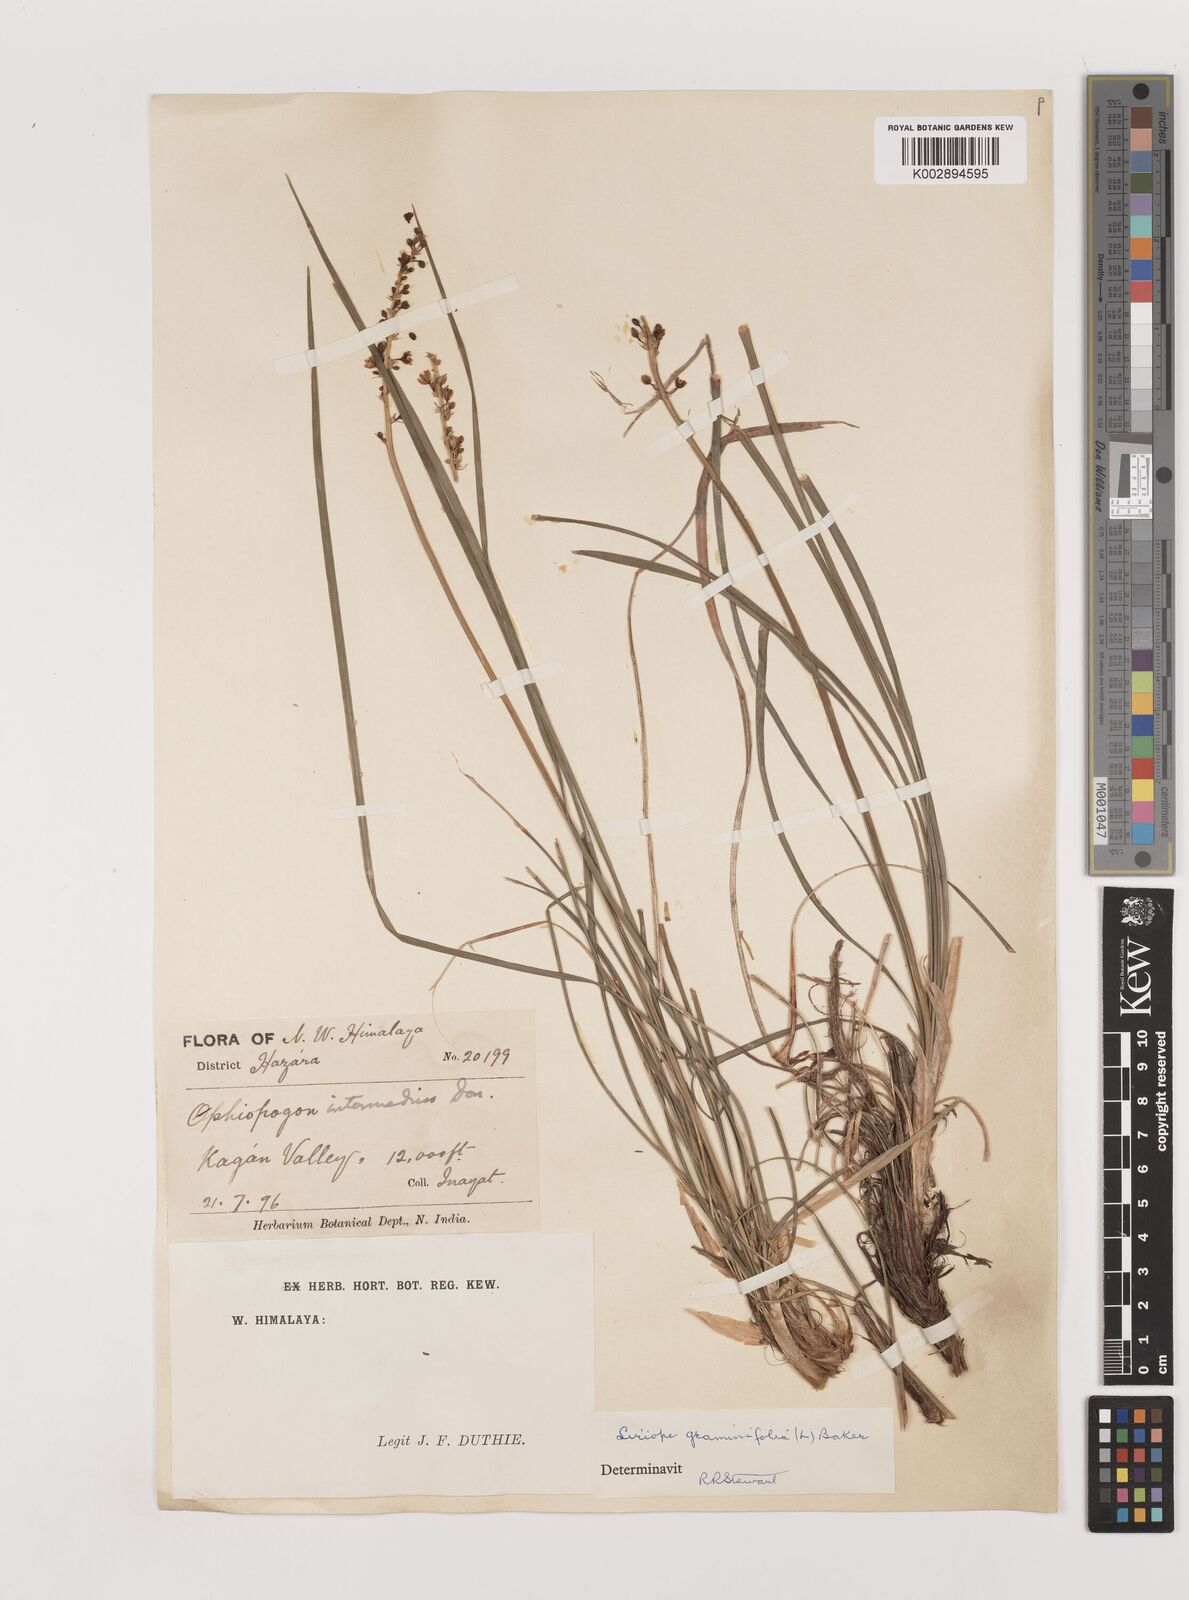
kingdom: Plantae
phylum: Tracheophyta
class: Liliopsida
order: Asparagales
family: Asparagaceae
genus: Liriope
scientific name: Liriope spicata
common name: Creeping liriope
